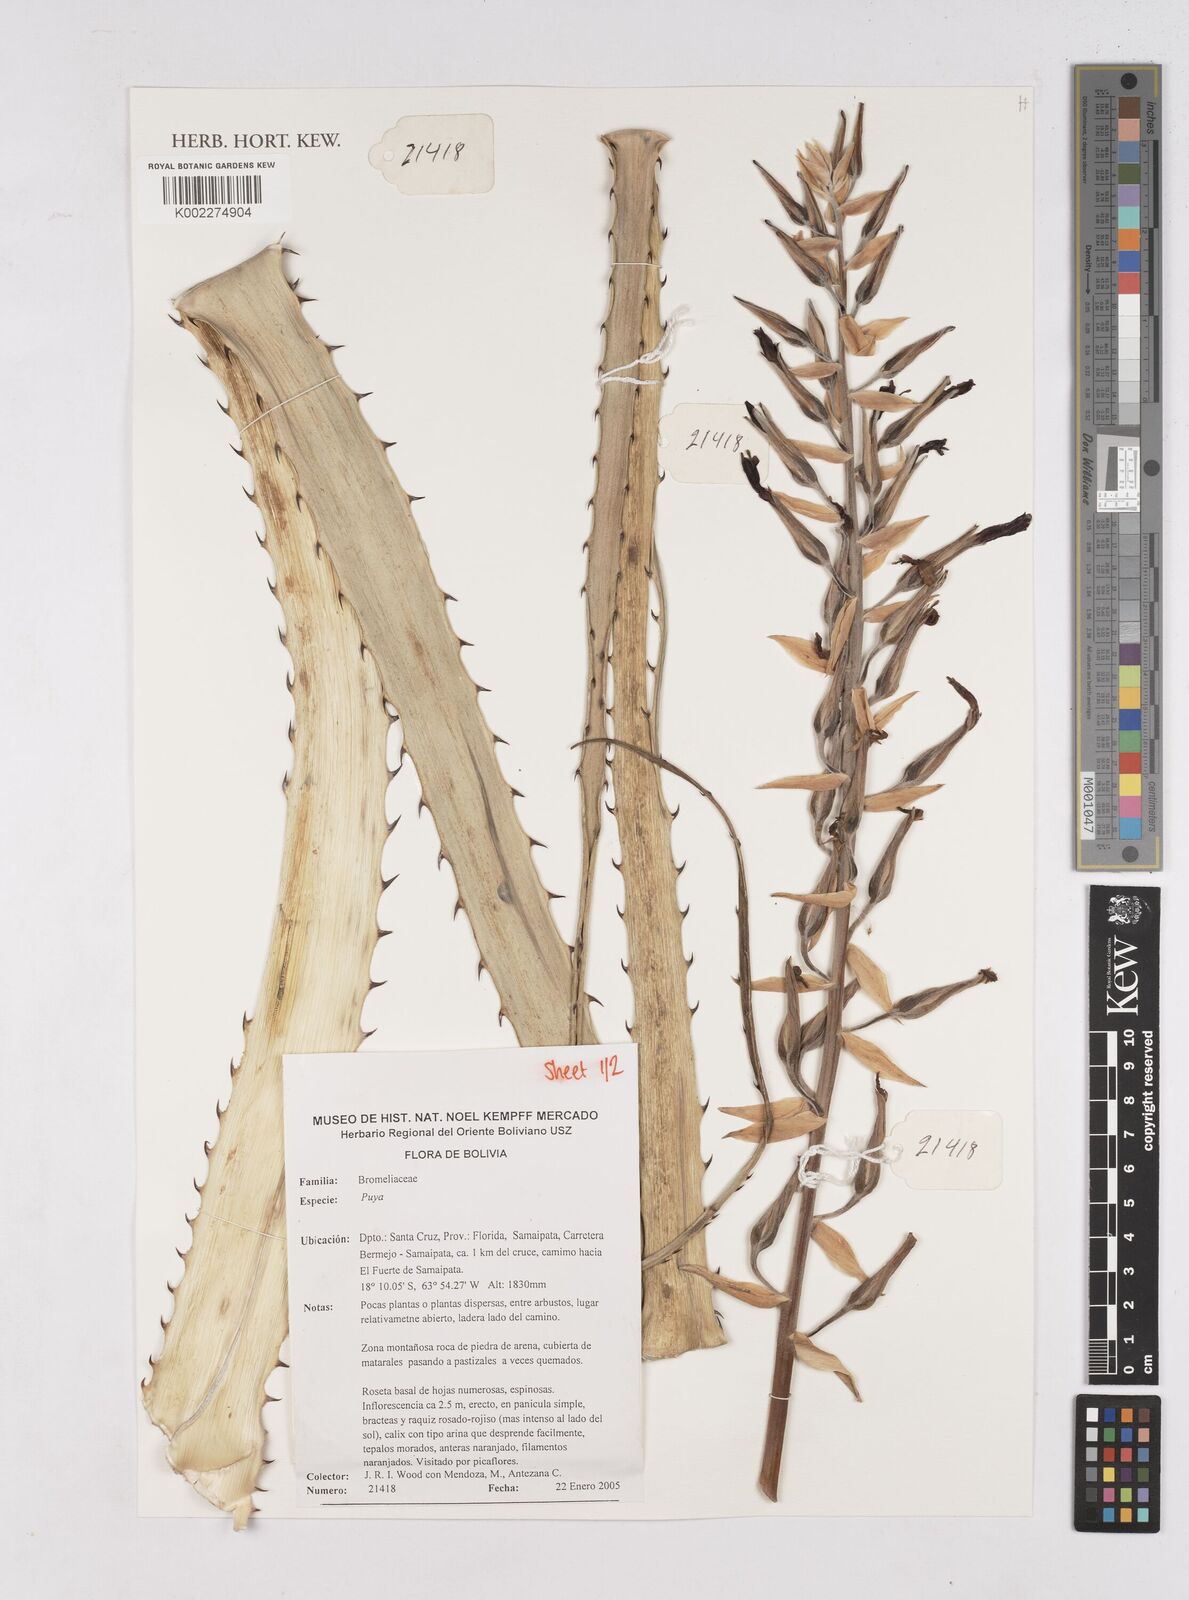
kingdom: Plantae
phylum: Tracheophyta
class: Liliopsida
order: Poales
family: Bromeliaceae
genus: Puya
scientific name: Puya
